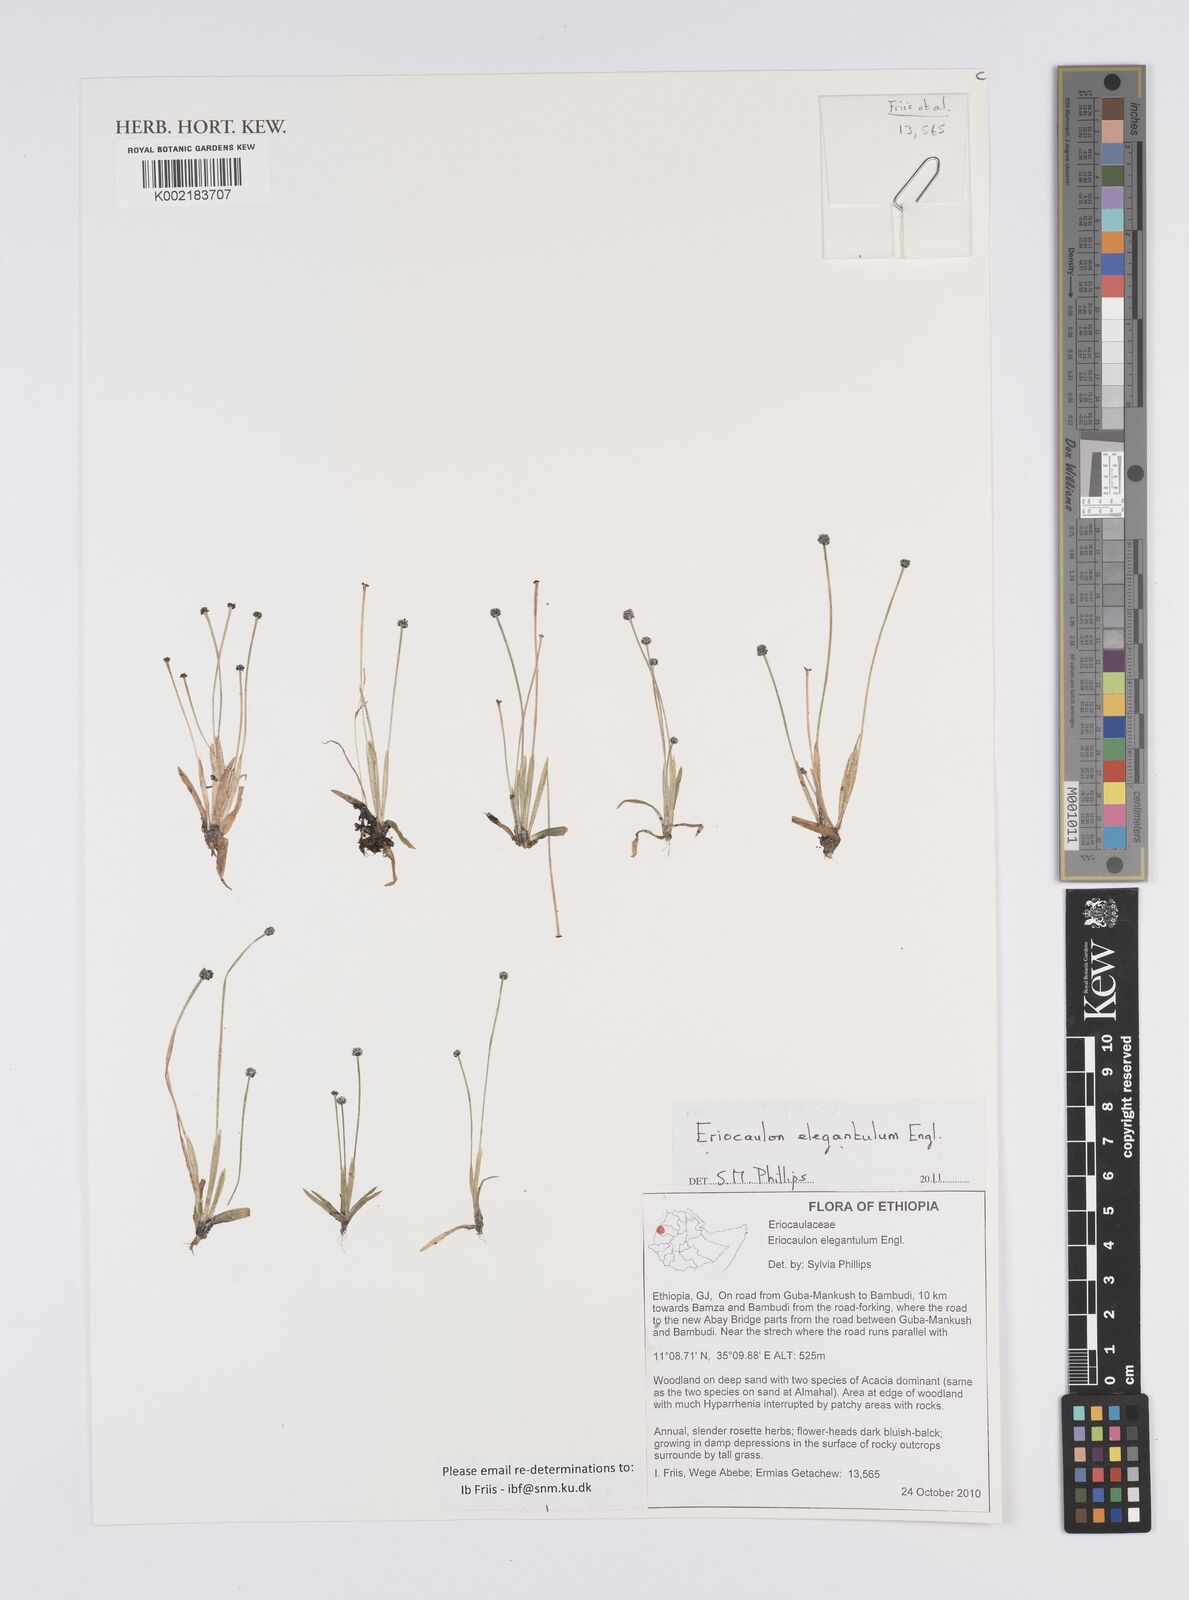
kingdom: Plantae
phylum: Tracheophyta
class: Liliopsida
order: Poales
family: Eriocaulaceae
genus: Eriocaulon
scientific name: Eriocaulon elegantulum
